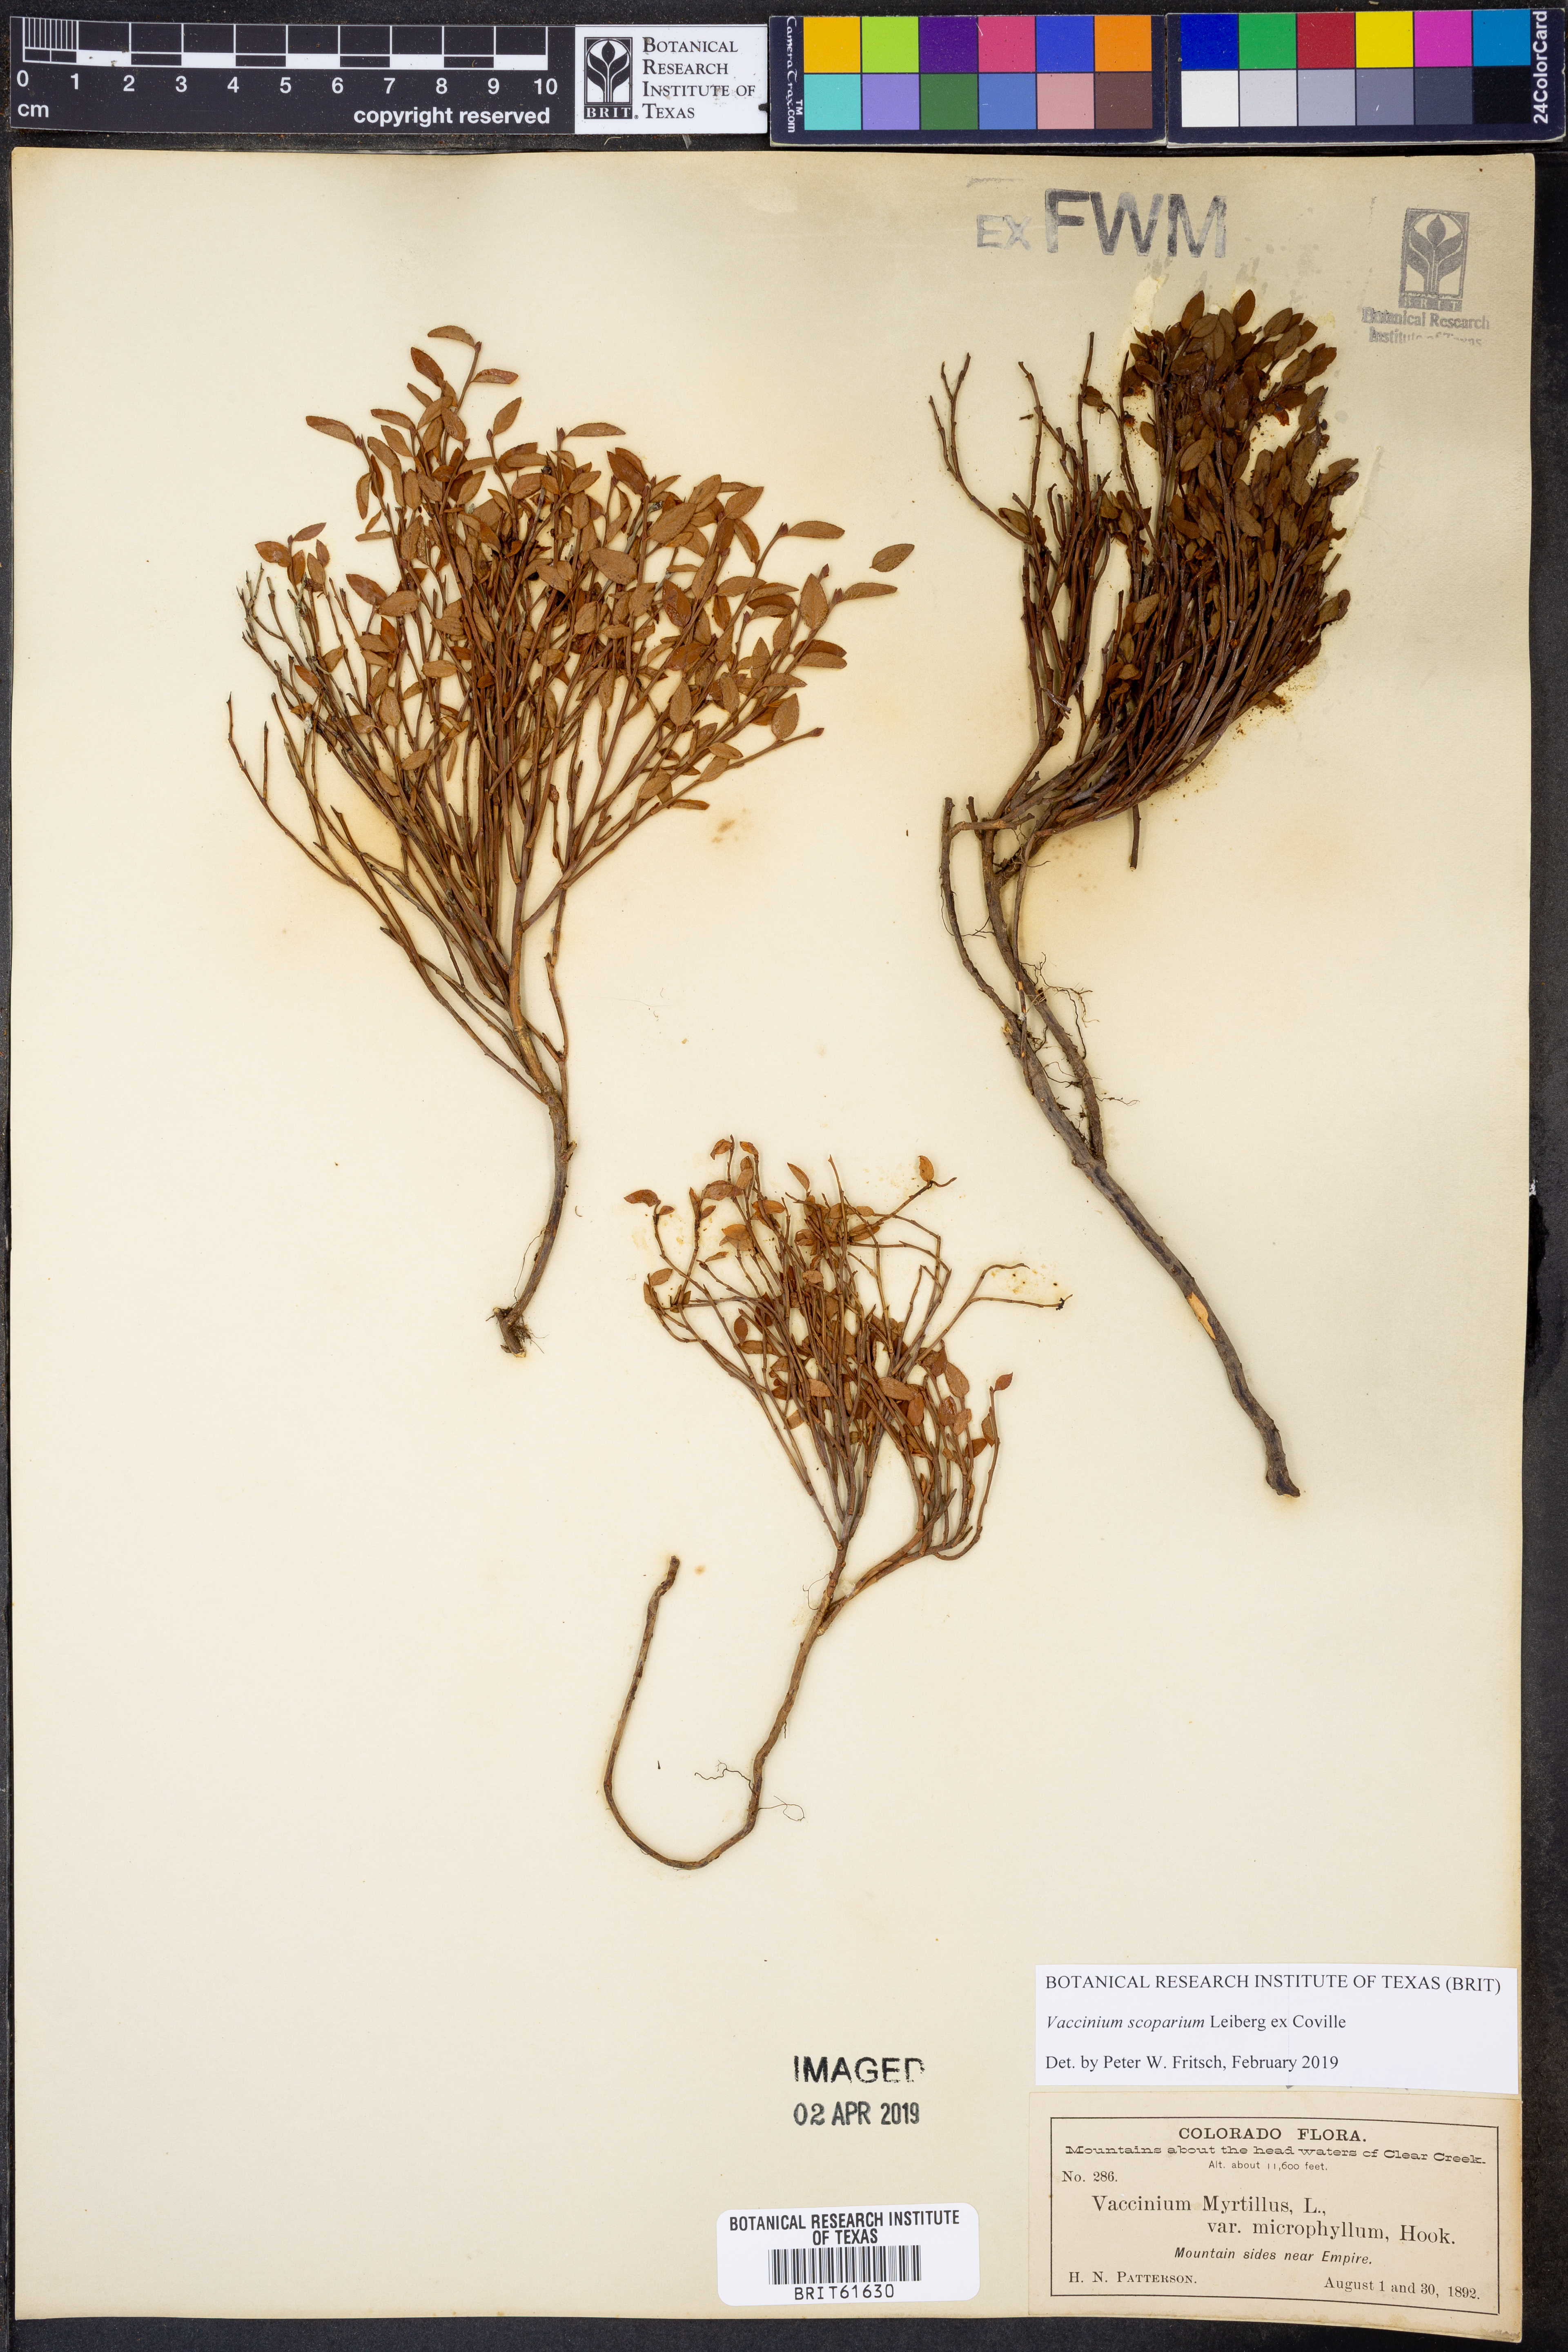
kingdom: Plantae
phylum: Tracheophyta
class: Magnoliopsida
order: Ericales
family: Ericaceae
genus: Vaccinium
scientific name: Vaccinium scoparium
